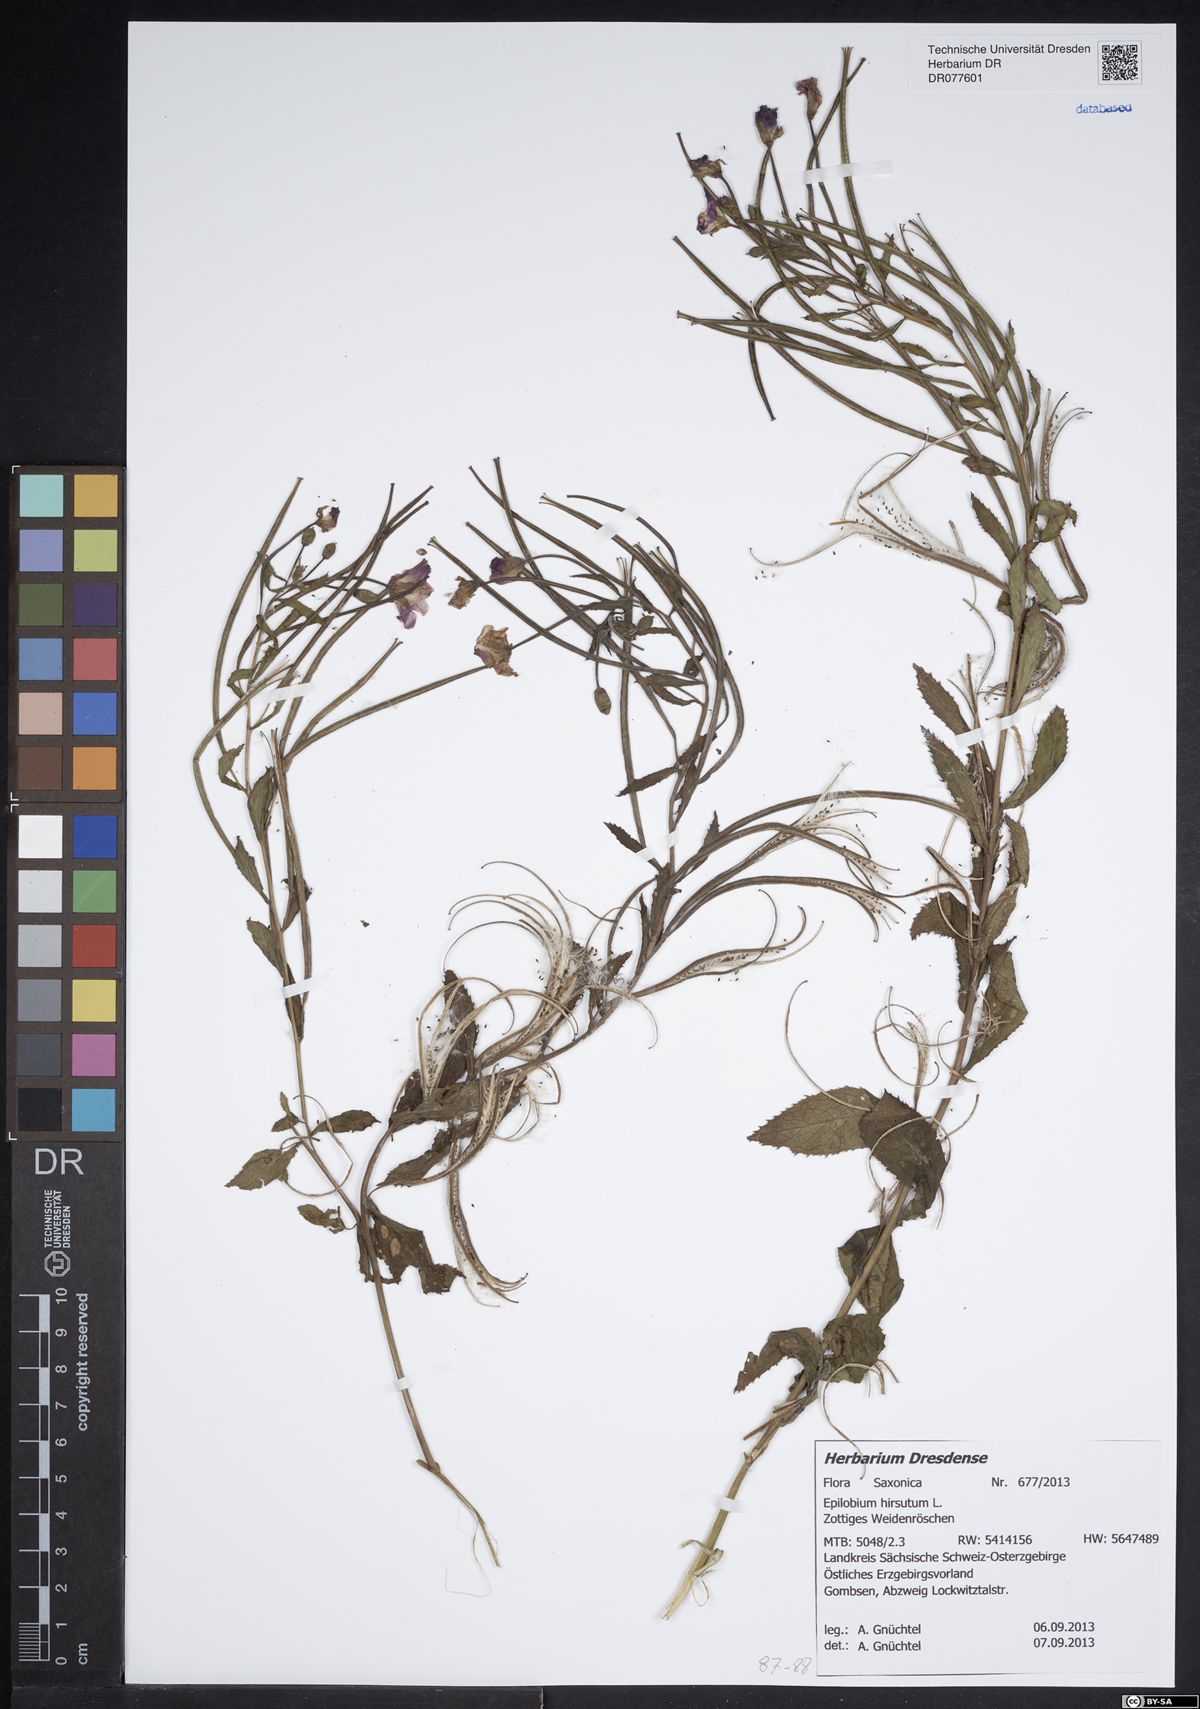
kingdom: Plantae
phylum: Tracheophyta
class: Magnoliopsida
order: Myrtales
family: Onagraceae
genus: Epilobium
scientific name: Epilobium hirsutum
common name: Great willowherb
